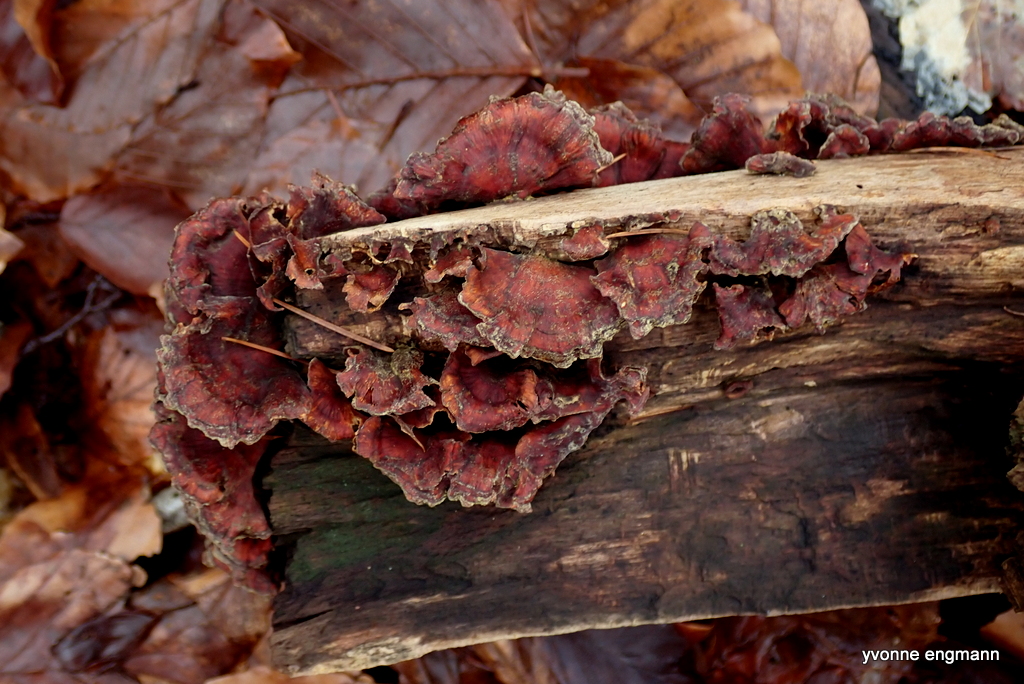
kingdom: Fungi
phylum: Basidiomycota
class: Agaricomycetes
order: Russulales
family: Stereaceae
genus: Stereum
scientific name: Stereum subtomentosum
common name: smuk lædersvamp
